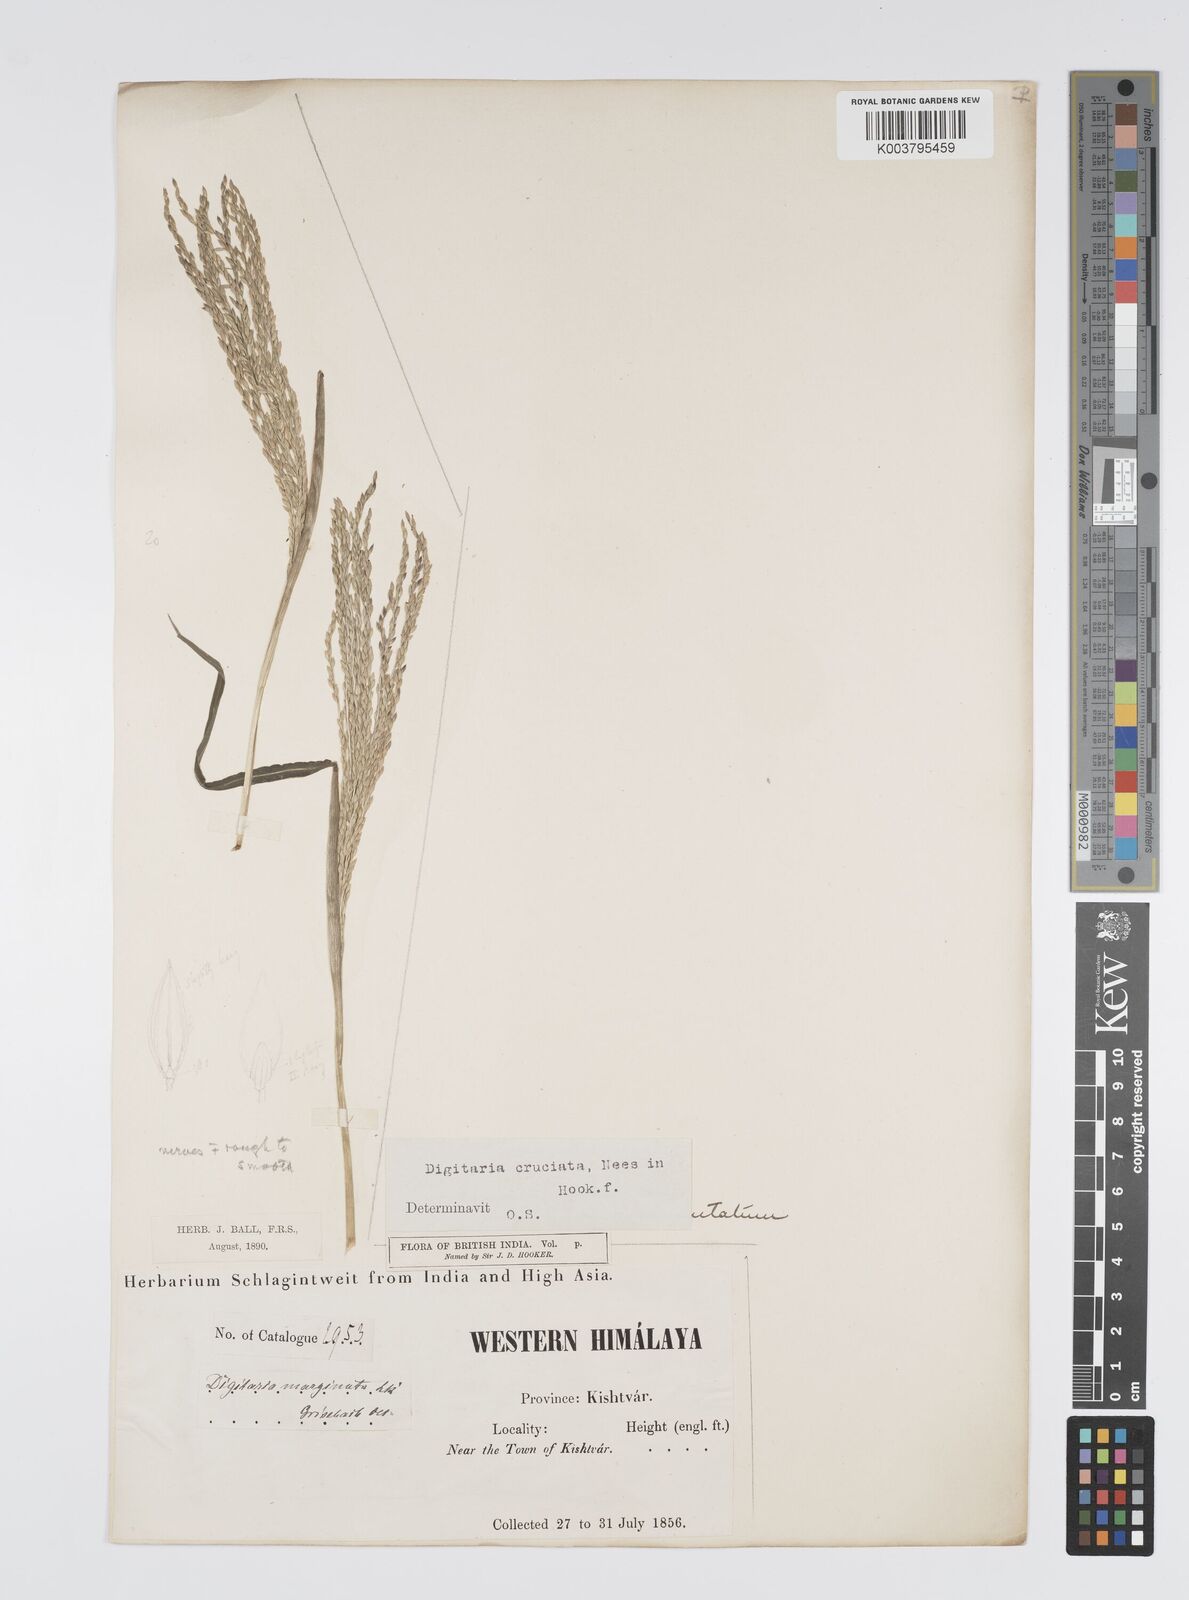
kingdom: Plantae
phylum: Tracheophyta
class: Liliopsida
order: Poales
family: Poaceae
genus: Digitaria
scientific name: Digitaria cruciata
